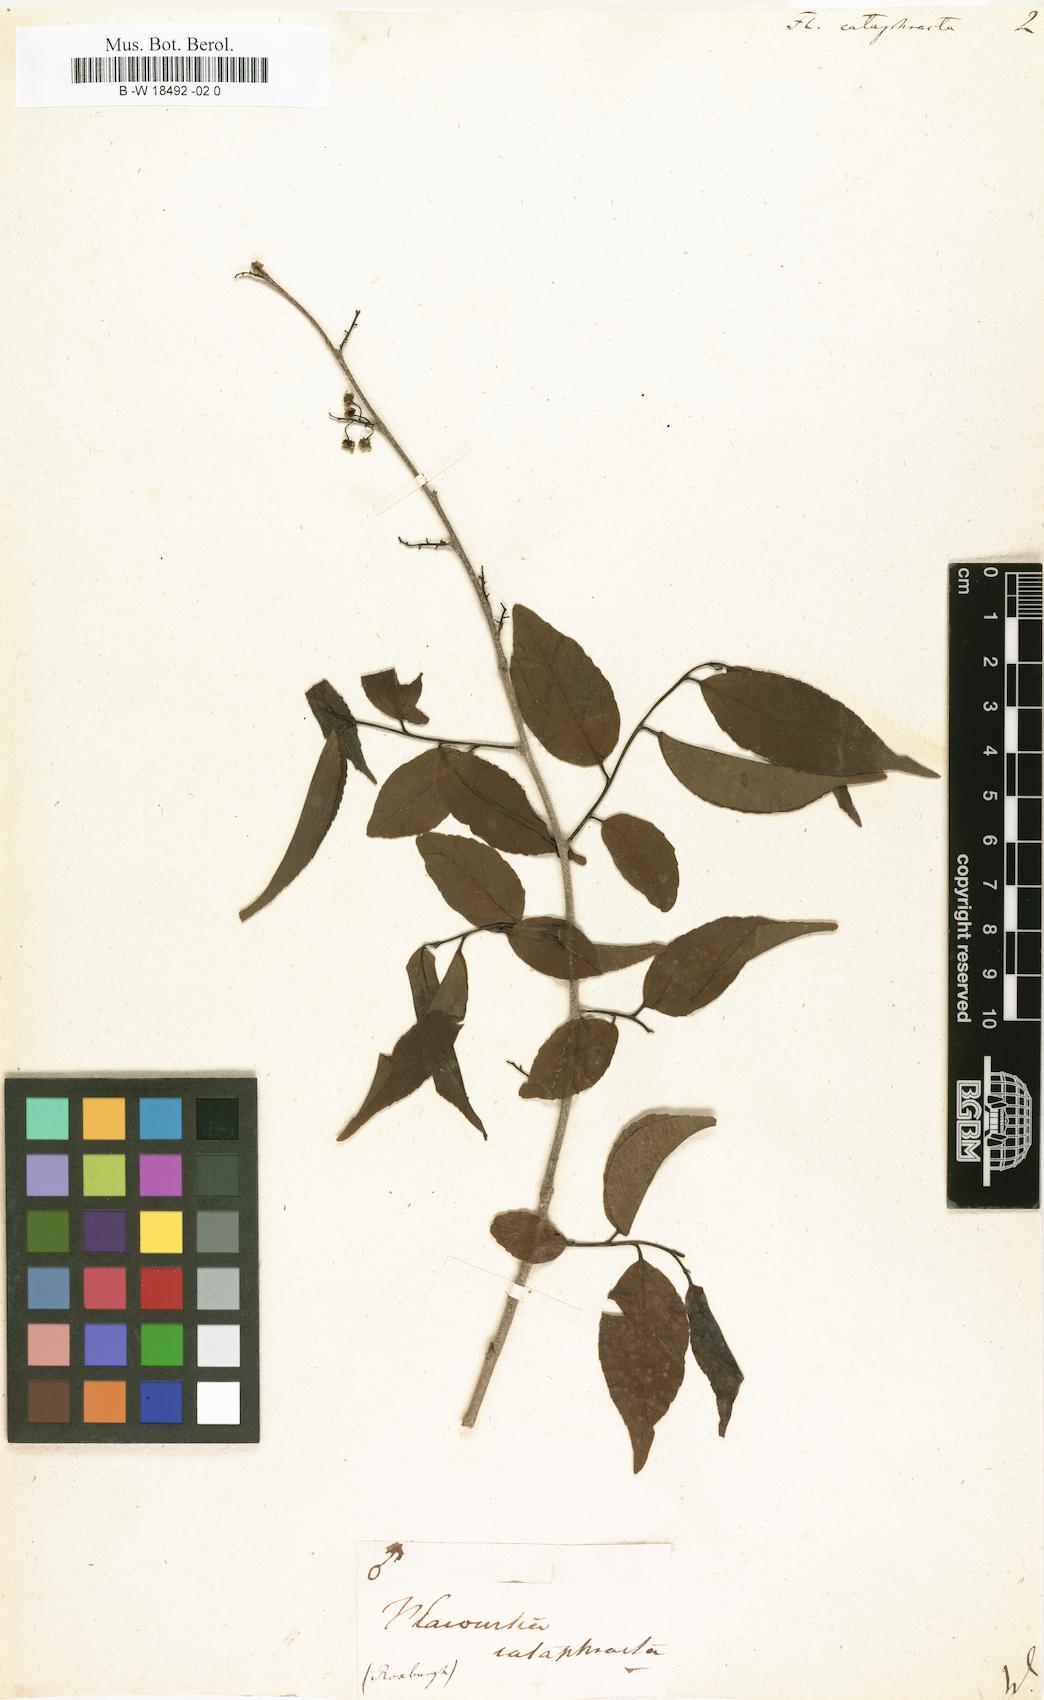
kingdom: Plantae
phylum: Tracheophyta
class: Magnoliopsida
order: Malpighiales
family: Salicaceae
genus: Flacourtia
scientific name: Flacourtia jangomas
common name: Indian-plum
